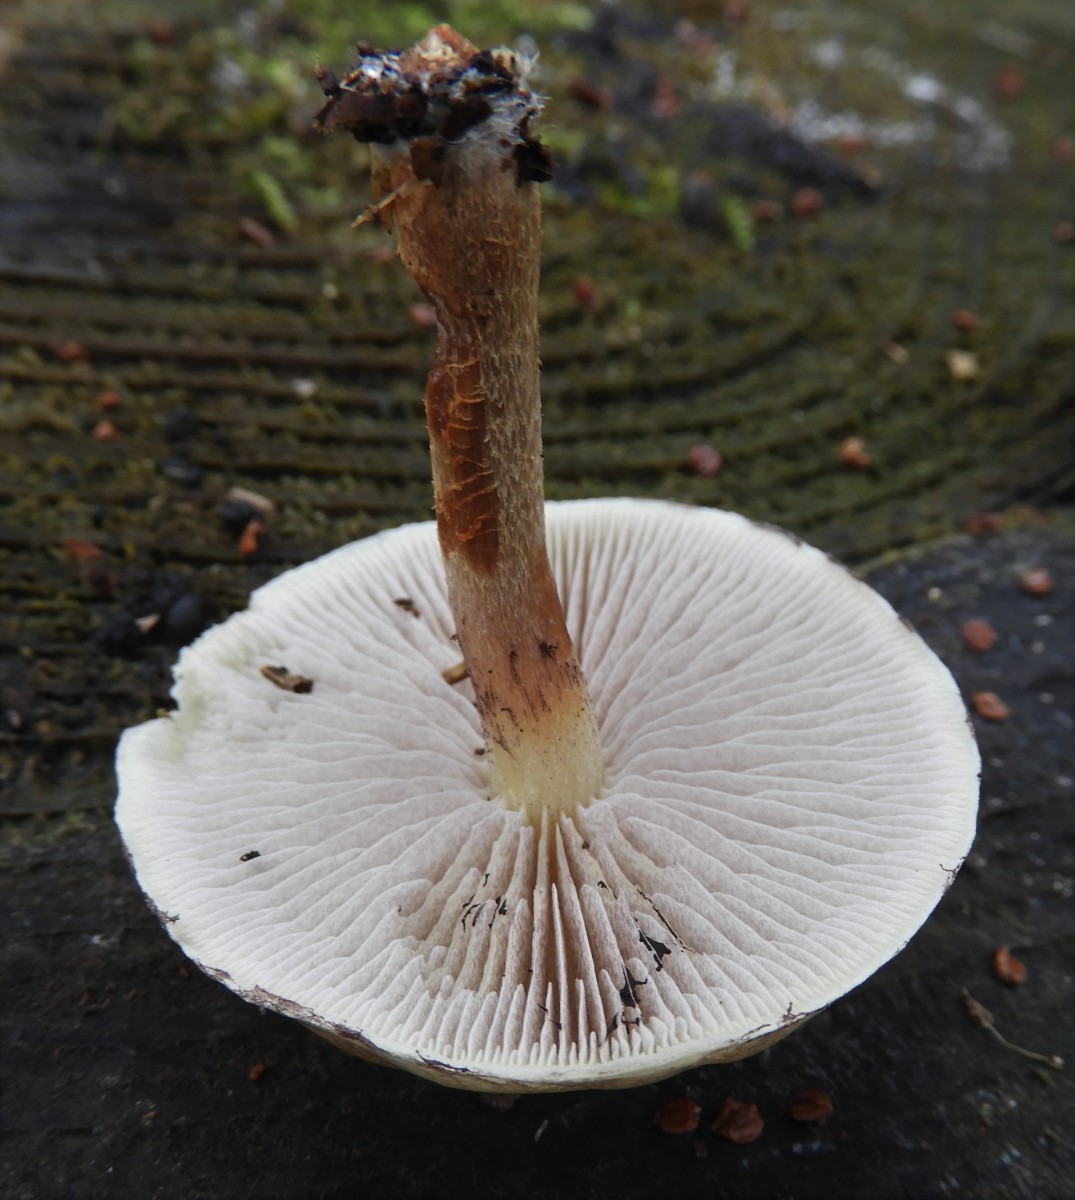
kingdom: Fungi
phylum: Basidiomycota
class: Agaricomycetes
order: Agaricales
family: Strophariaceae
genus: Hypholoma
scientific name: Hypholoma capnoides
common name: gran-svovlhat
